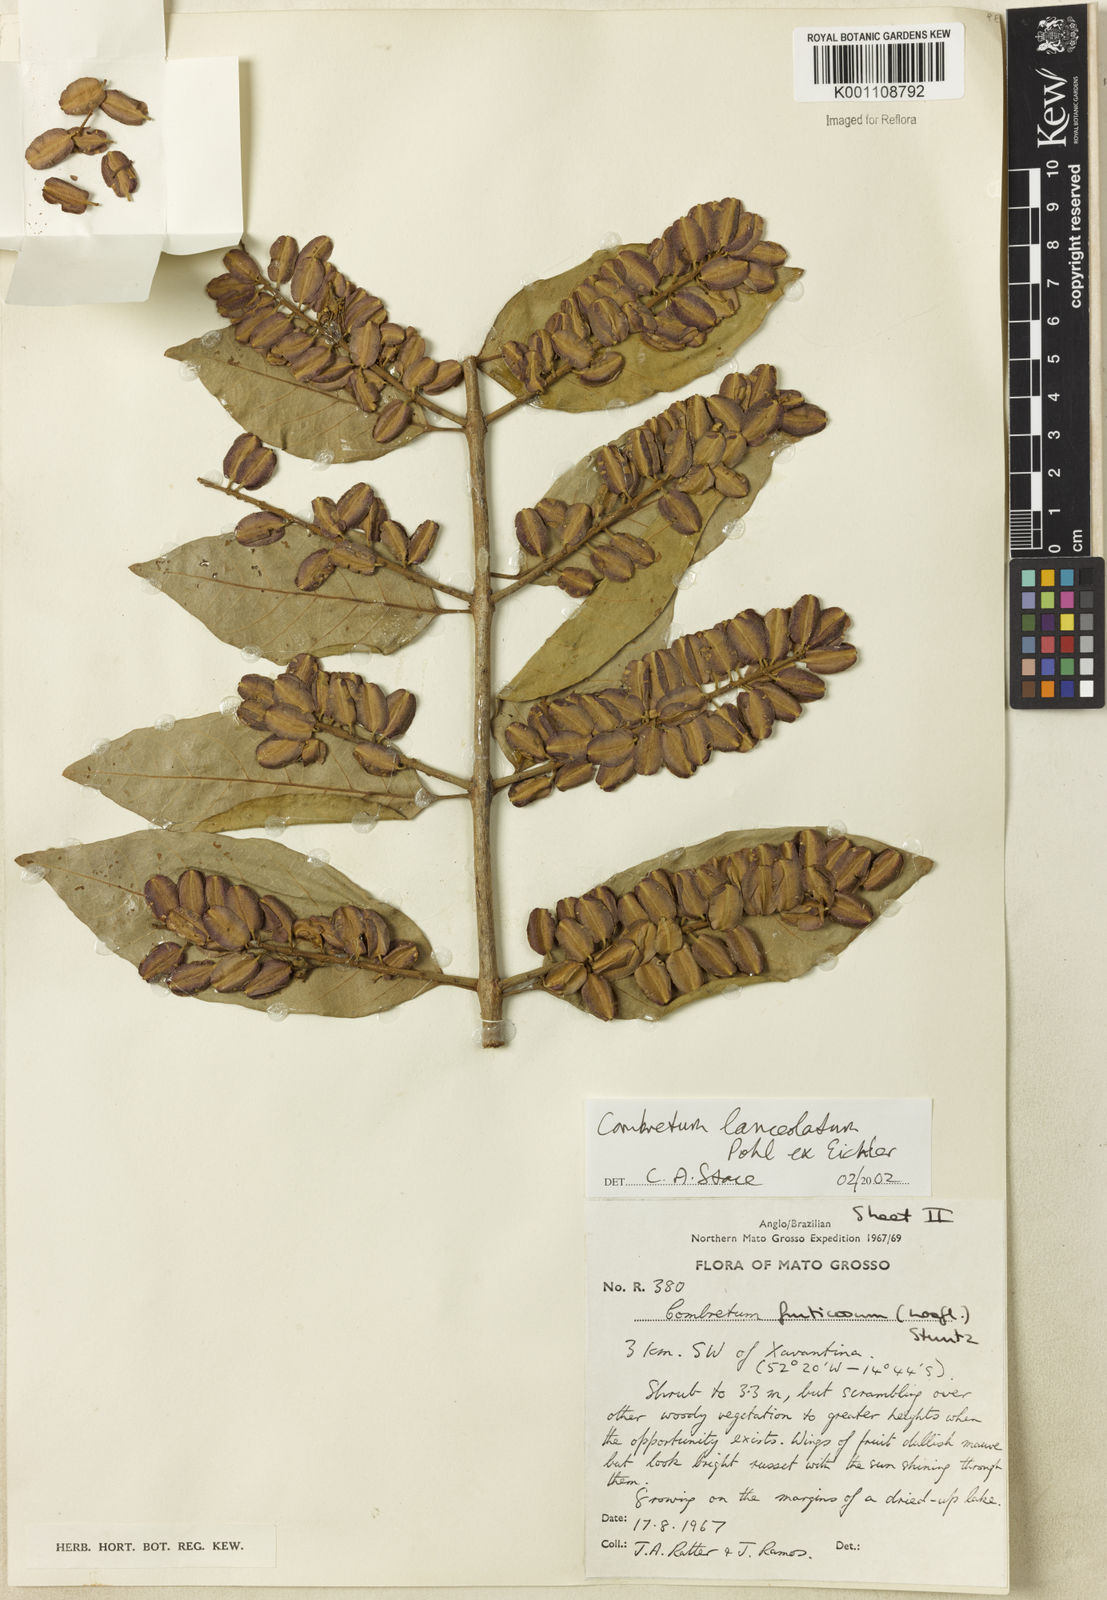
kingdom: Plantae
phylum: Tracheophyta
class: Magnoliopsida
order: Myrtales
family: Combretaceae
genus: Combretum
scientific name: Combretum lanceolatum
